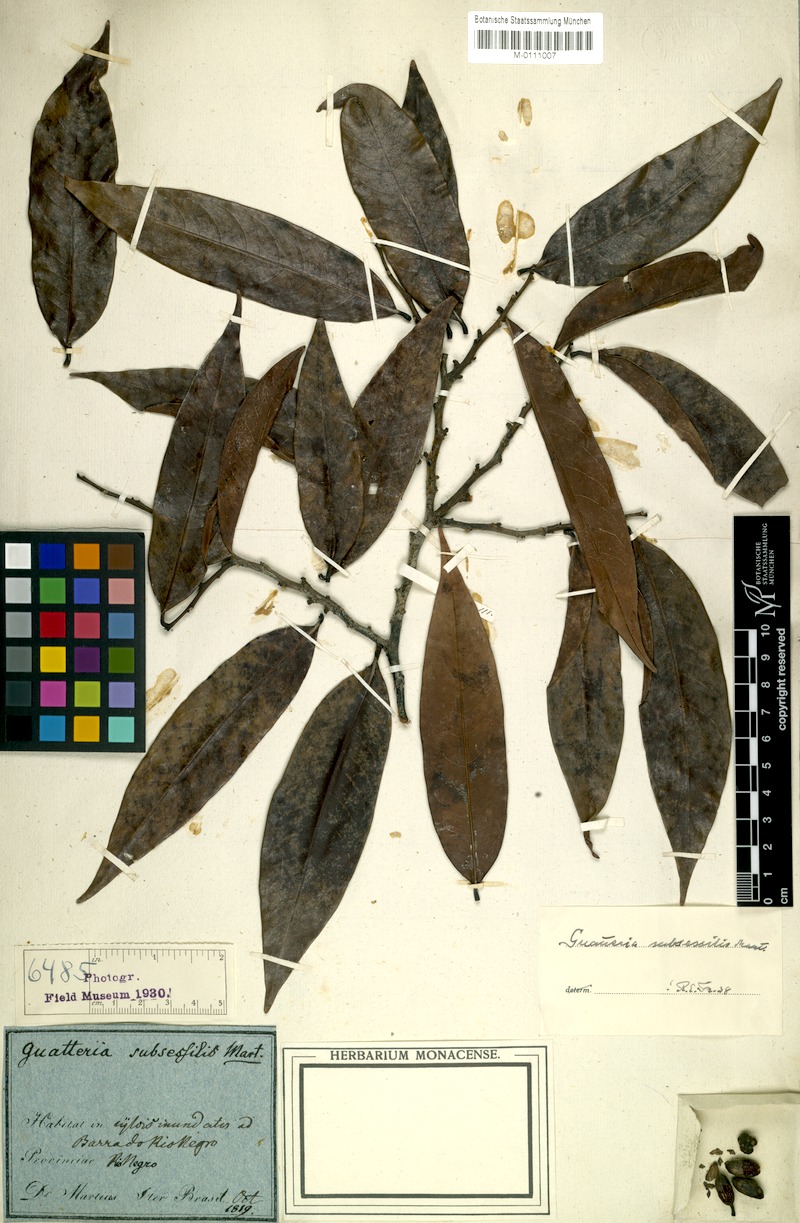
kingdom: Plantae
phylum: Tracheophyta
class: Magnoliopsida
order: Magnoliales
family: Annonaceae
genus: Guatteria
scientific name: Guatteria subsessilis
